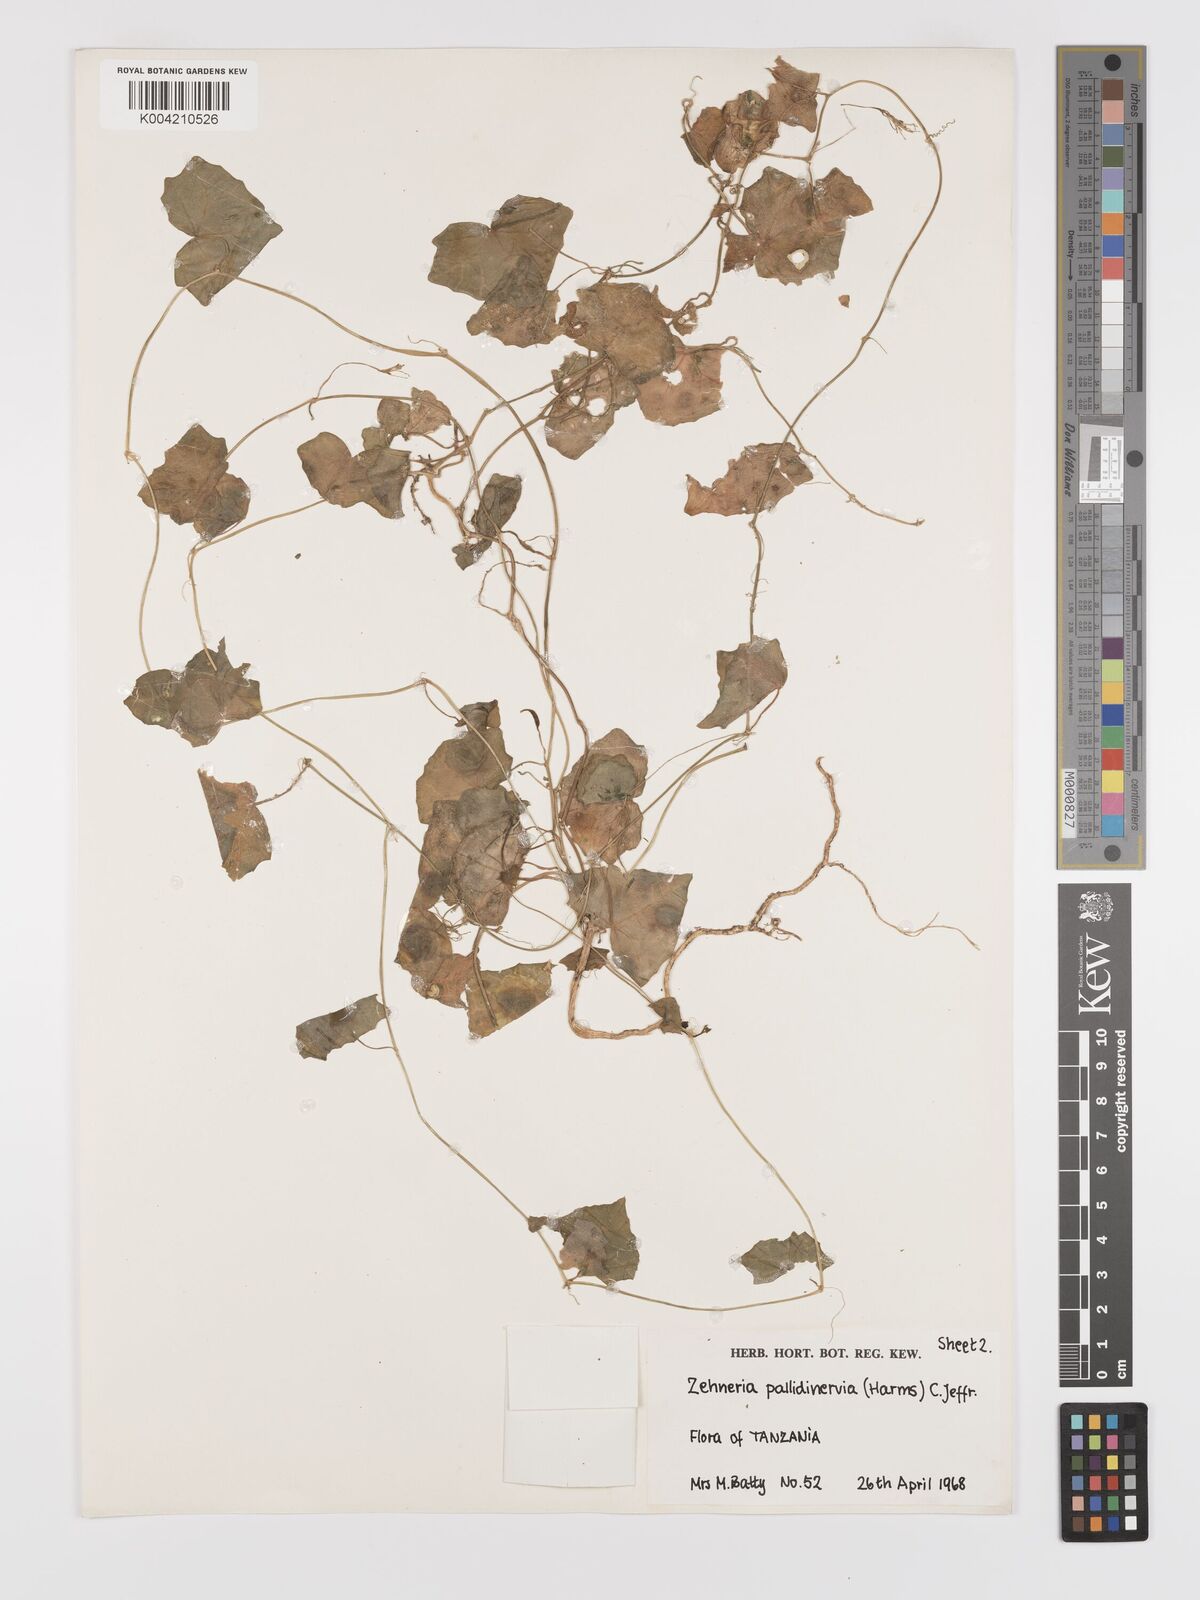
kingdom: Plantae
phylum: Tracheophyta
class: Magnoliopsida
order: Cucurbitales
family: Cucurbitaceae
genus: Zehneria
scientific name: Zehneria pallidinervia
